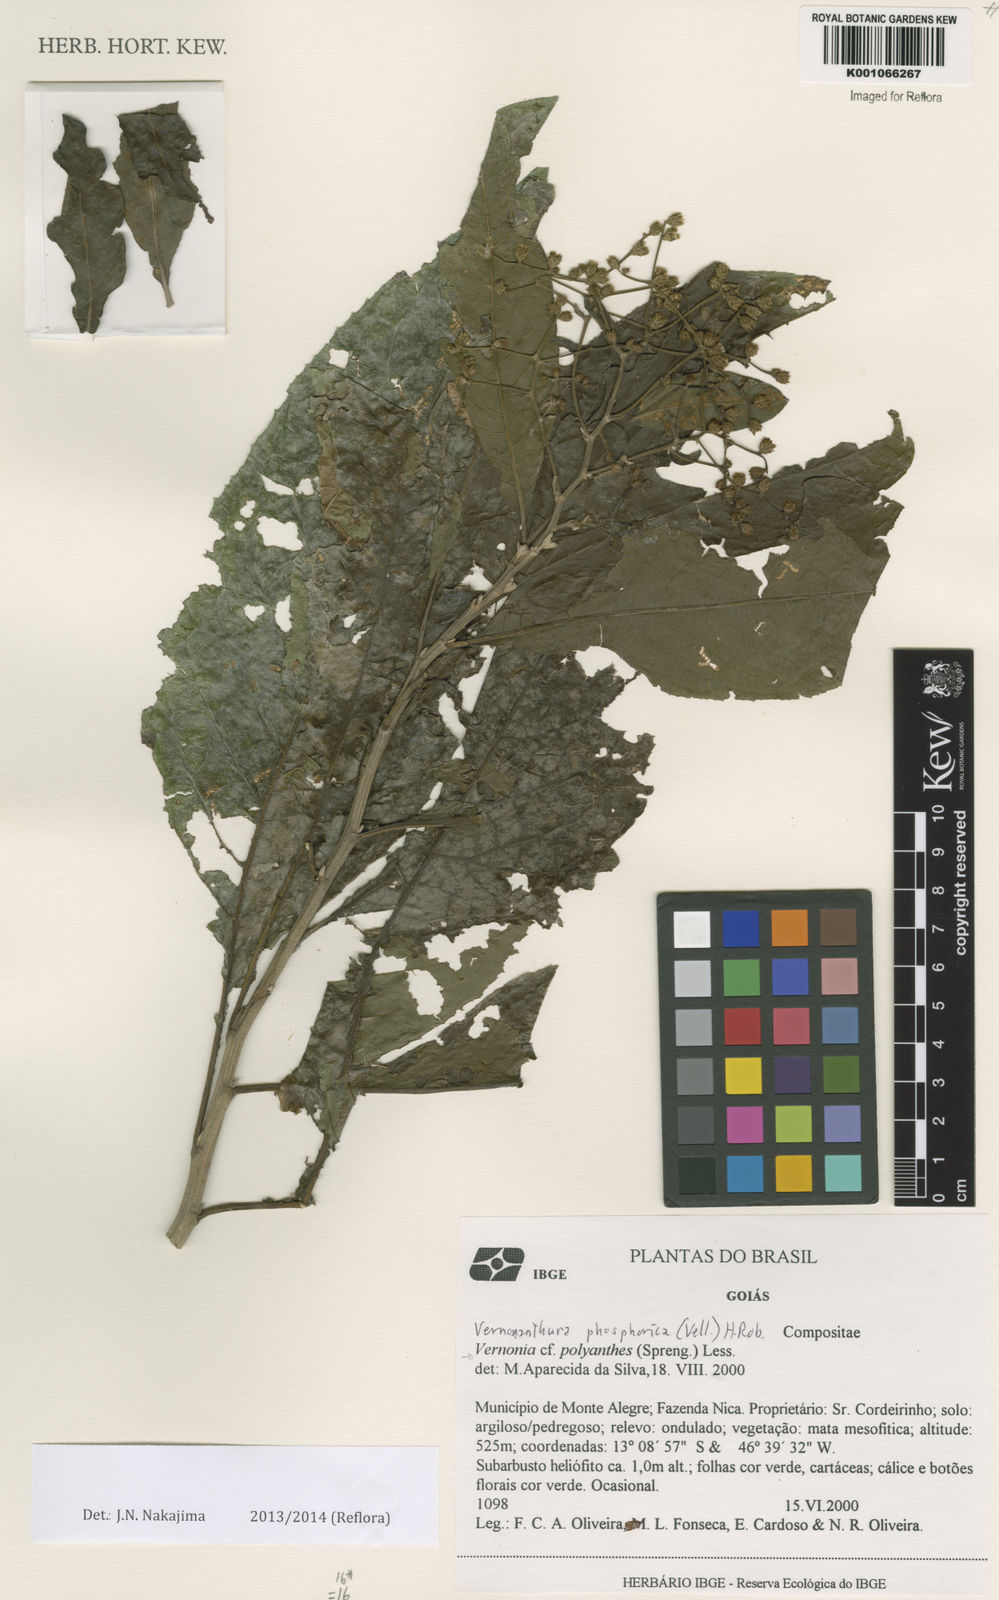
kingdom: Plantae
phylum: Tracheophyta
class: Magnoliopsida
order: Asterales
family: Asteraceae
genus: Vernonanthura
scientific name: Vernonanthura membranacea
